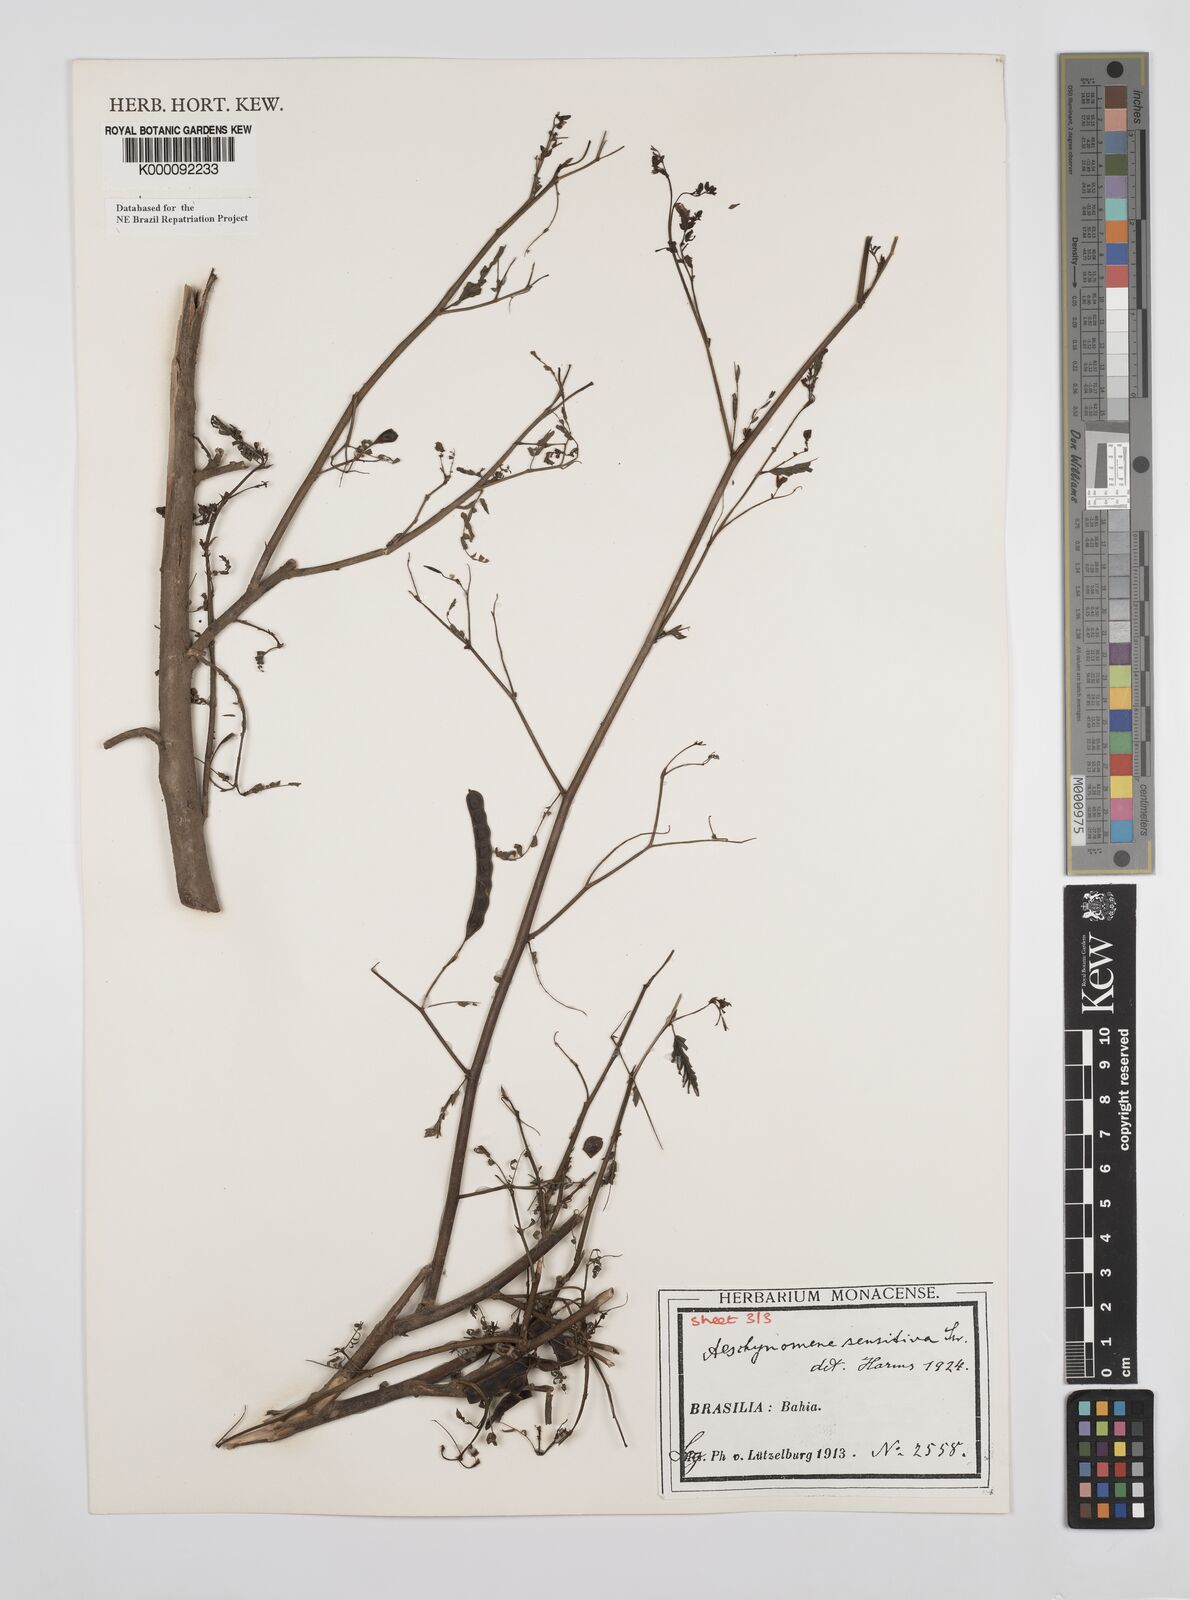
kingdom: Plantae
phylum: Tracheophyta
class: Magnoliopsida
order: Fabales
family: Fabaceae
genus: Aeschynomene
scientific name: Aeschynomene sensitiva
